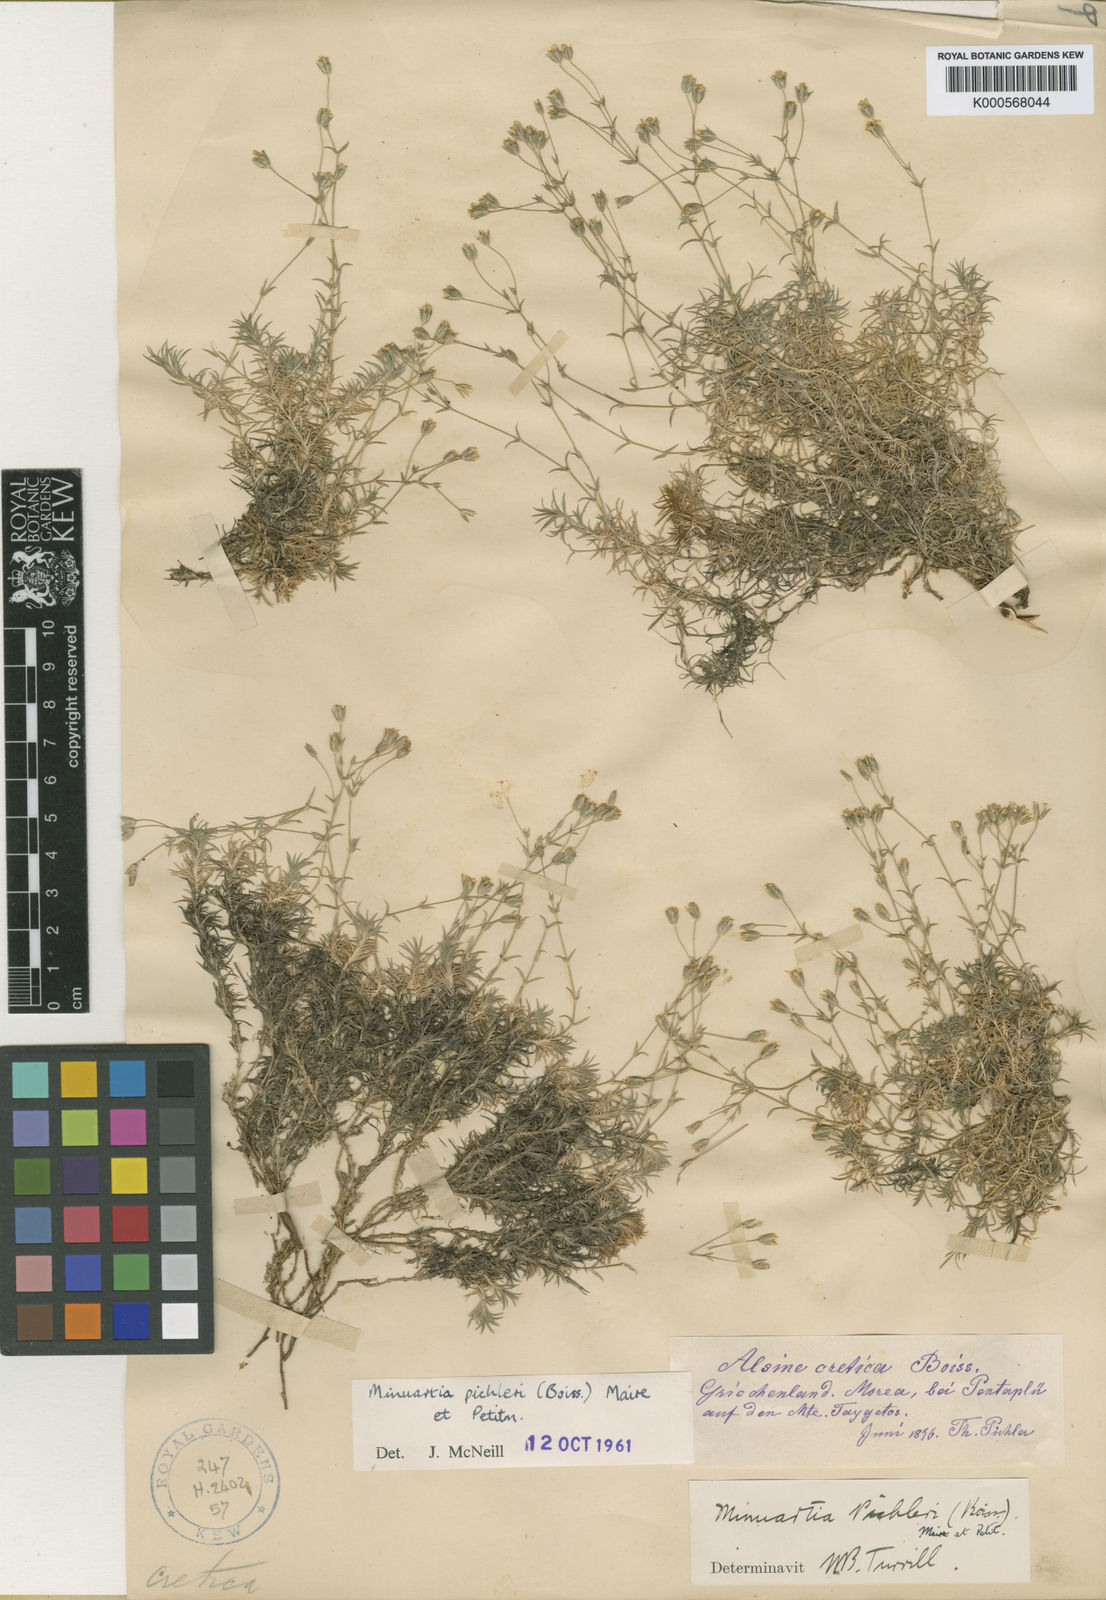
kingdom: Plantae
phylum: Tracheophyta
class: Magnoliopsida
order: Caryophyllales
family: Caryophyllaceae
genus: Sabulina
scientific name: Sabulina pichleri
